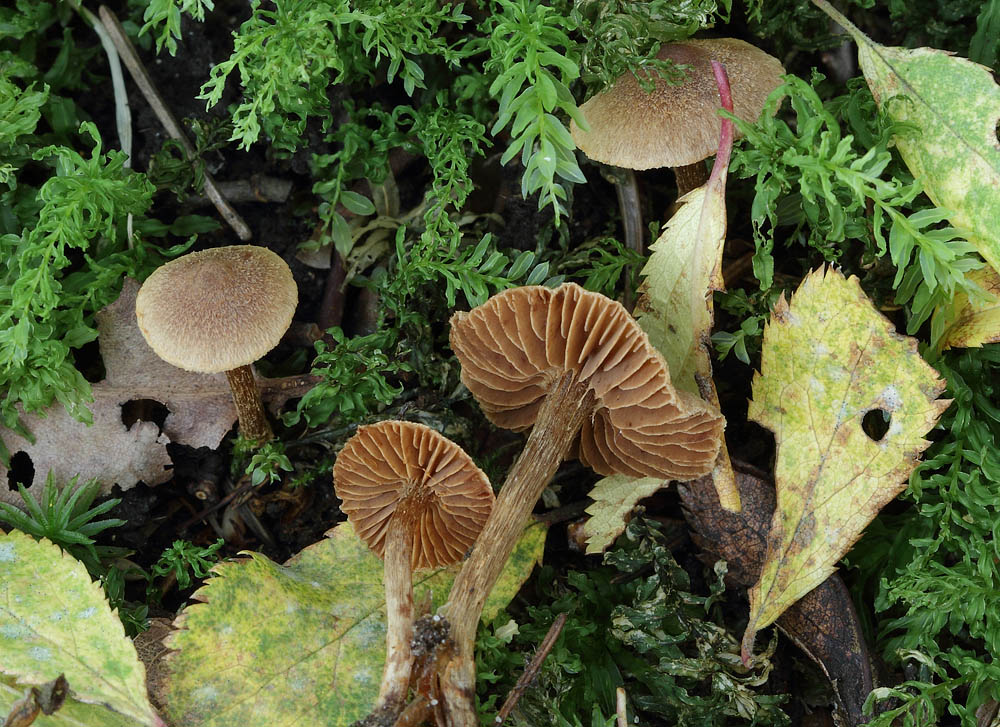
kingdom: Fungi
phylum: Basidiomycota
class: Agaricomycetes
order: Agaricales
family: Cortinariaceae
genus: Cortinarius
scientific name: Cortinarius castaneopallidus
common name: bronzetrævlet slørhat
